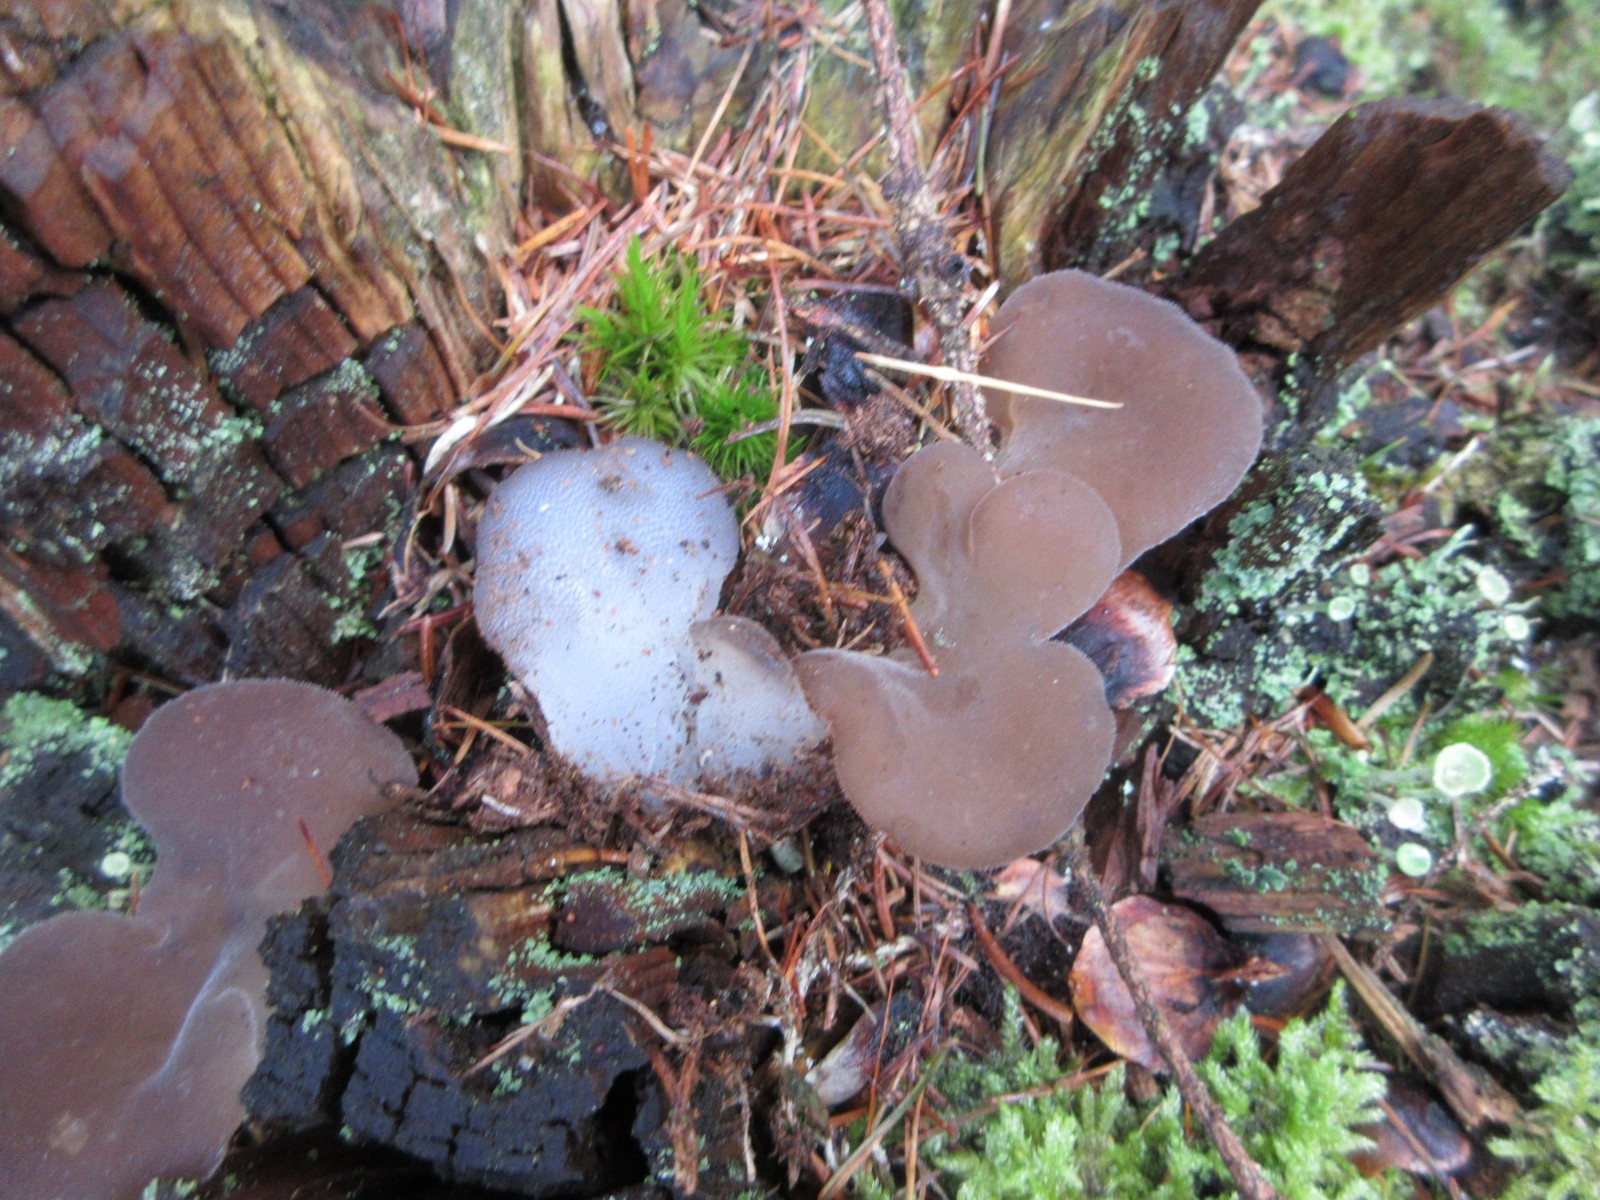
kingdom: Fungi
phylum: Basidiomycota
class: Agaricomycetes
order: Auriculariales
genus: Pseudohydnum
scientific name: Pseudohydnum gelatinosum
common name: bævretand
